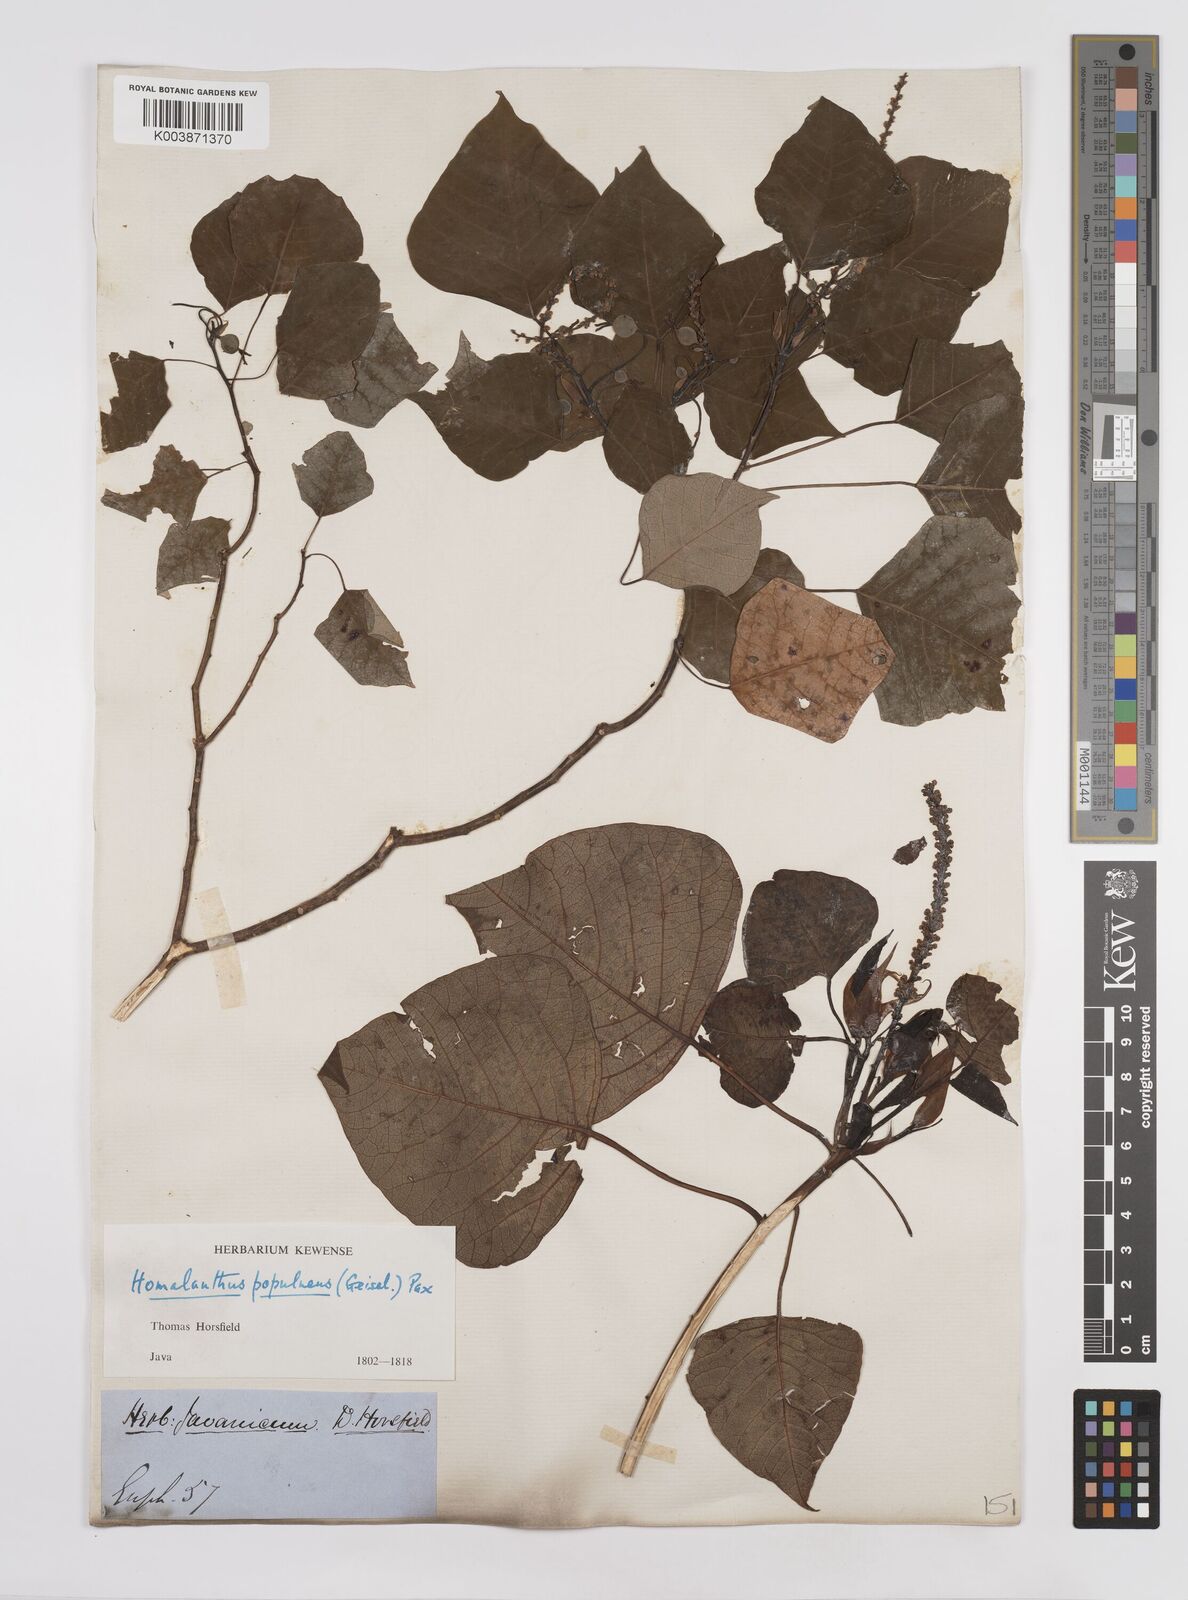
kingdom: Plantae
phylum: Tracheophyta
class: Magnoliopsida
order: Malpighiales
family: Euphorbiaceae
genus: Homalanthus
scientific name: Homalanthus populneus
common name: Spurge
